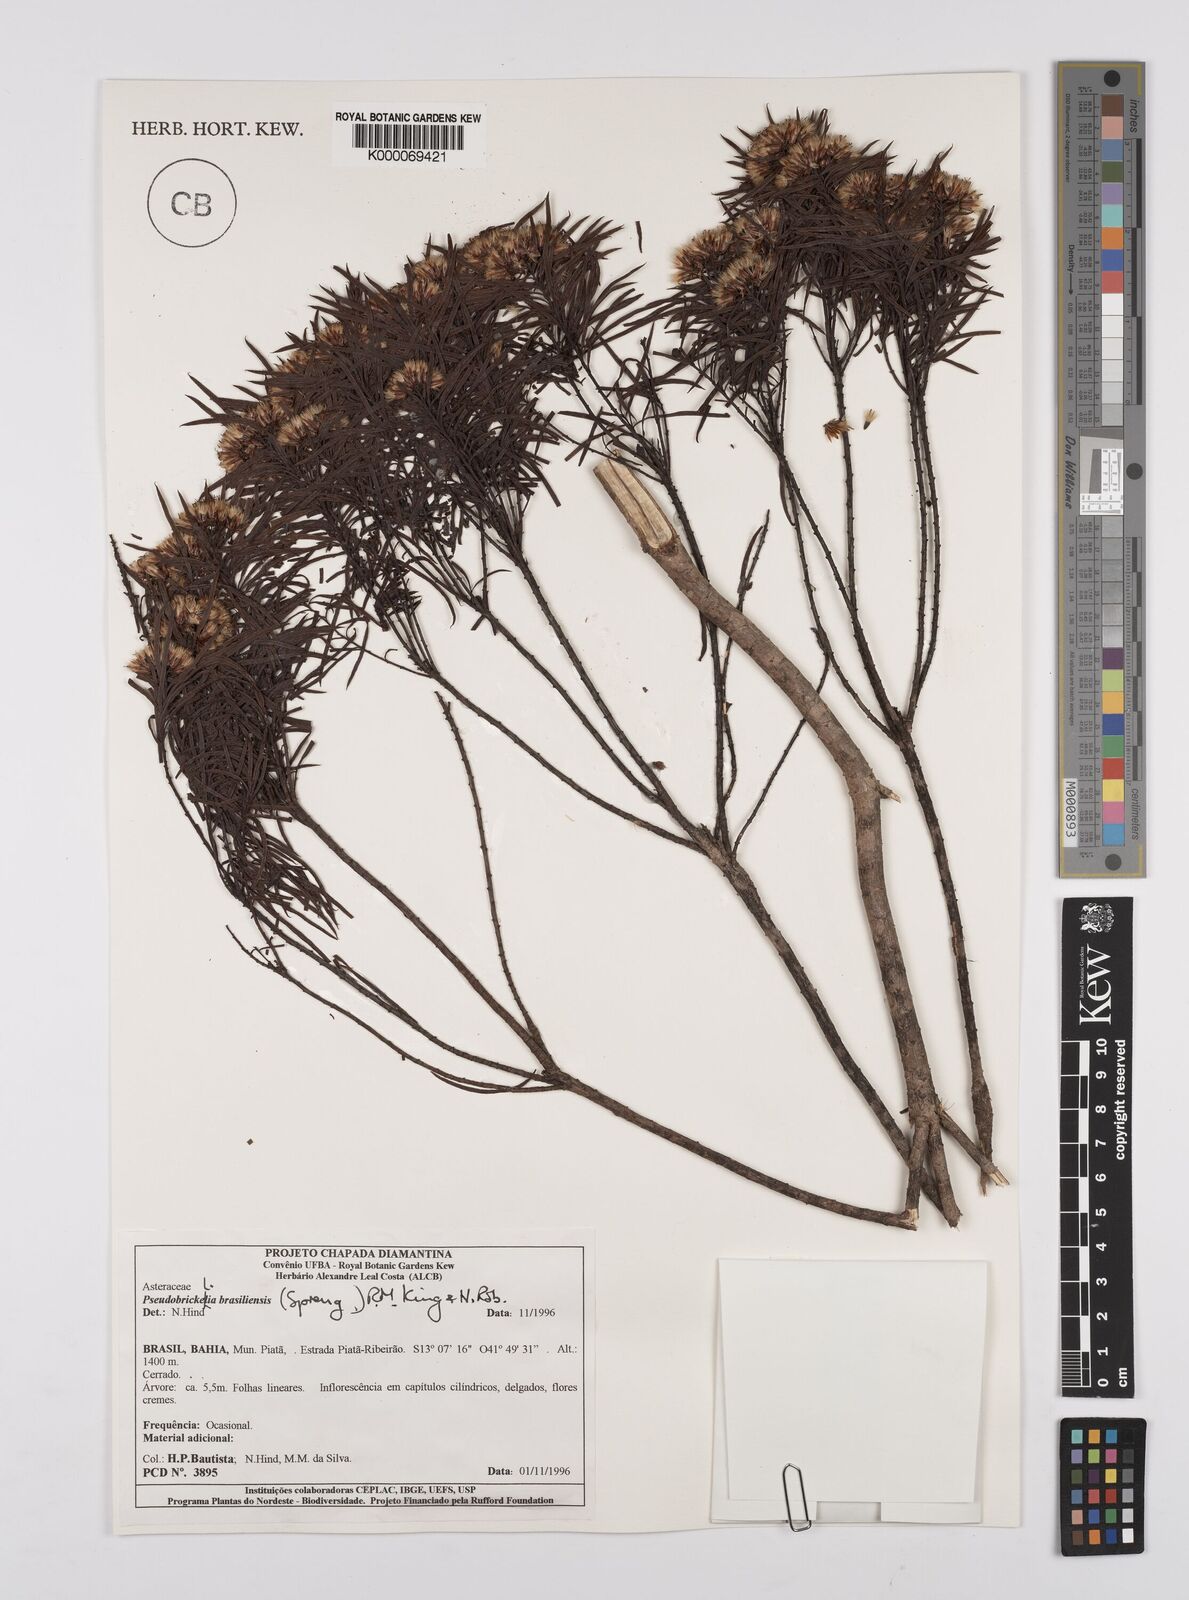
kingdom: Plantae
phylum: Tracheophyta
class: Magnoliopsida
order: Asterales
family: Asteraceae
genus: Pseudobrickellia
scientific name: Pseudobrickellia angustissima
